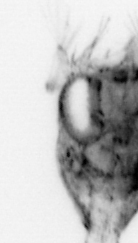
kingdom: Animalia
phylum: Arthropoda
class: Malacostraca
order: Decapoda
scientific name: Decapoda
